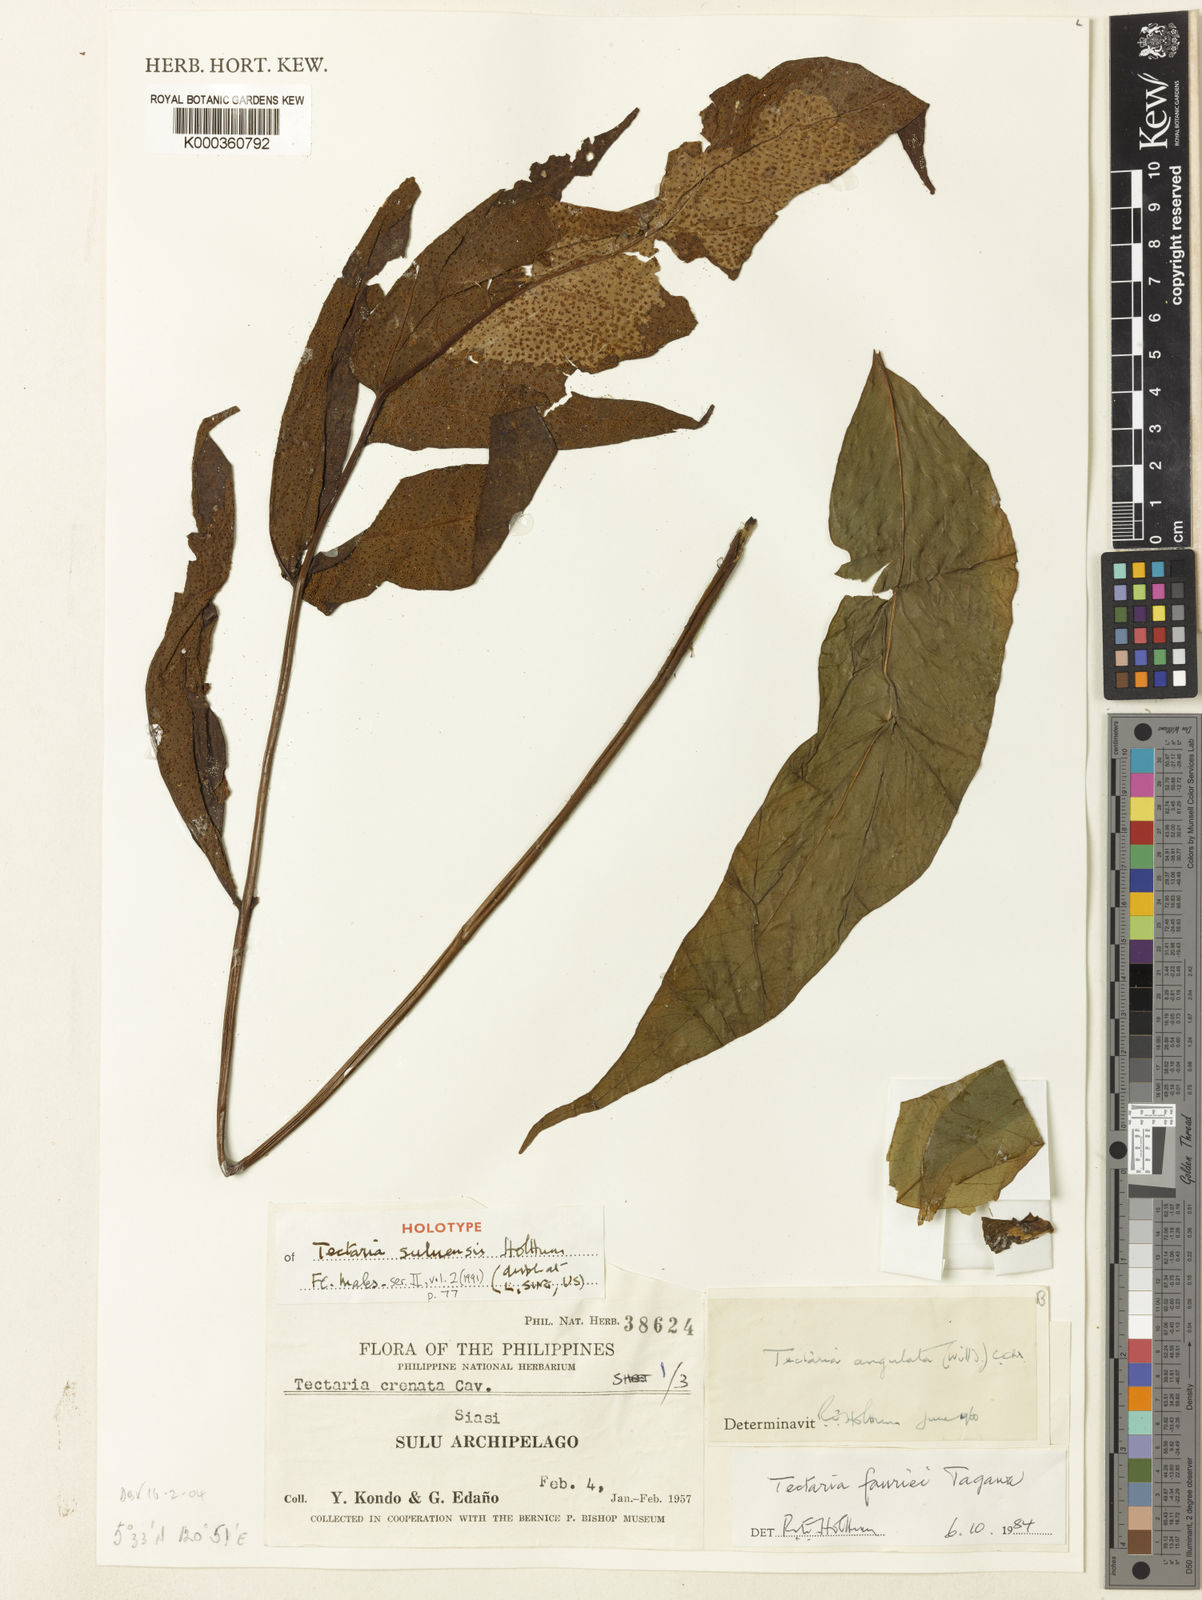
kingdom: Plantae
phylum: Tracheophyta
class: Polypodiopsida
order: Polypodiales
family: Tectariaceae
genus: Tectaria
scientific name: Tectaria suluensis
